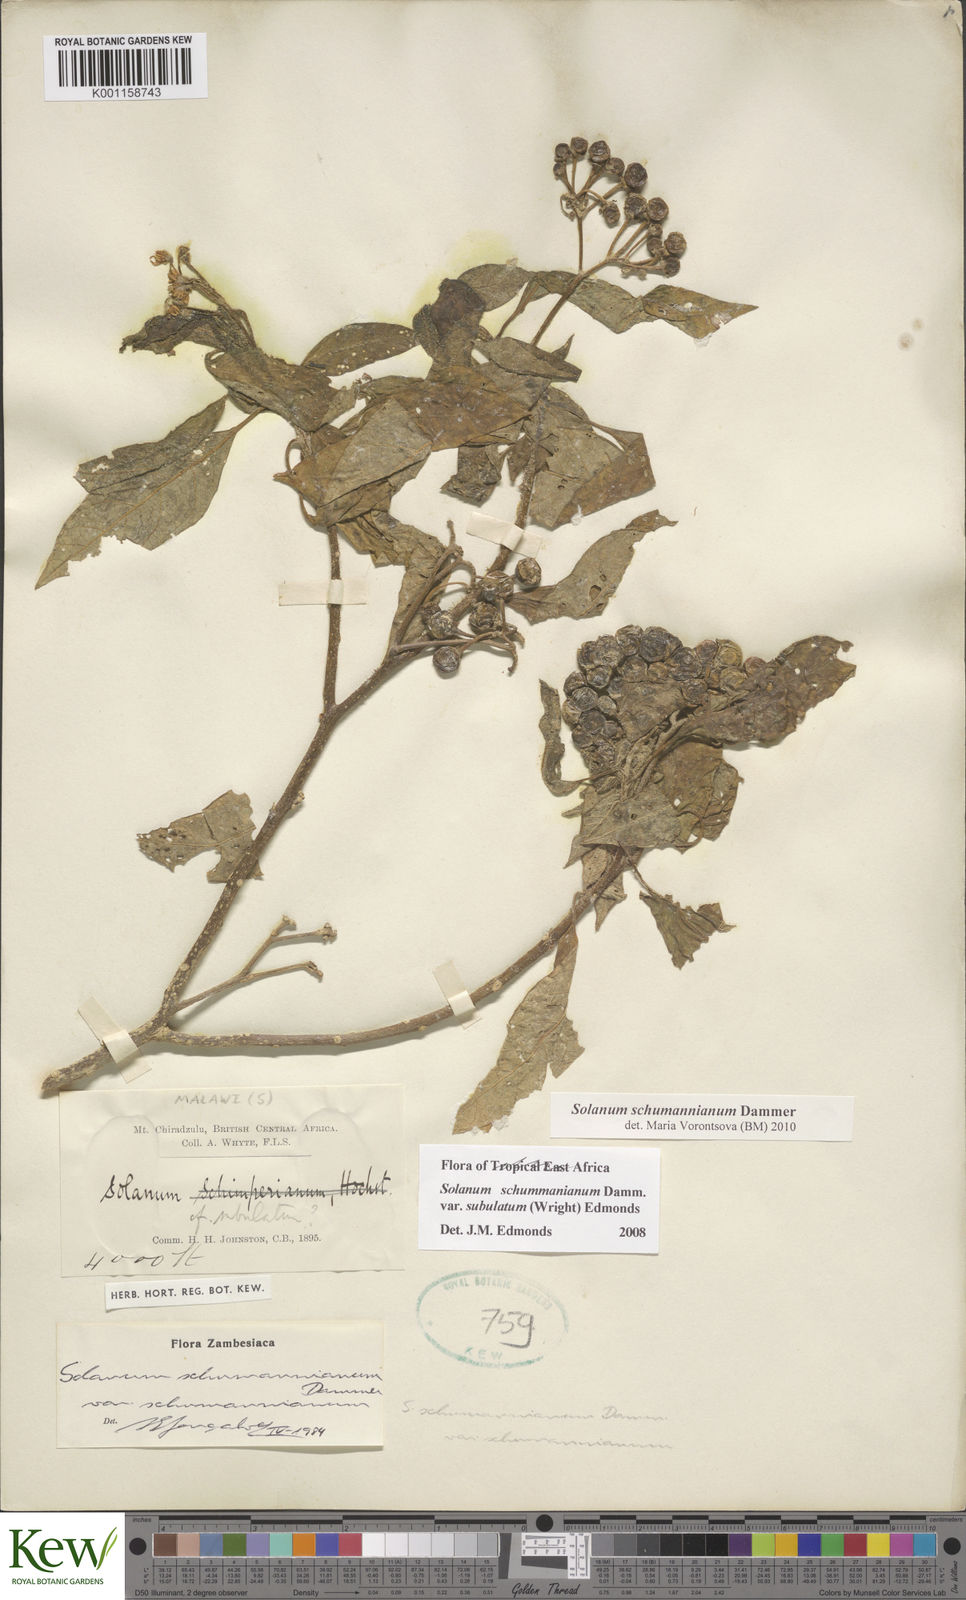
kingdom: Plantae
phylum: Tracheophyta
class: Magnoliopsida
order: Solanales
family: Solanaceae
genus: Solanum
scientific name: Solanum schumannianum
